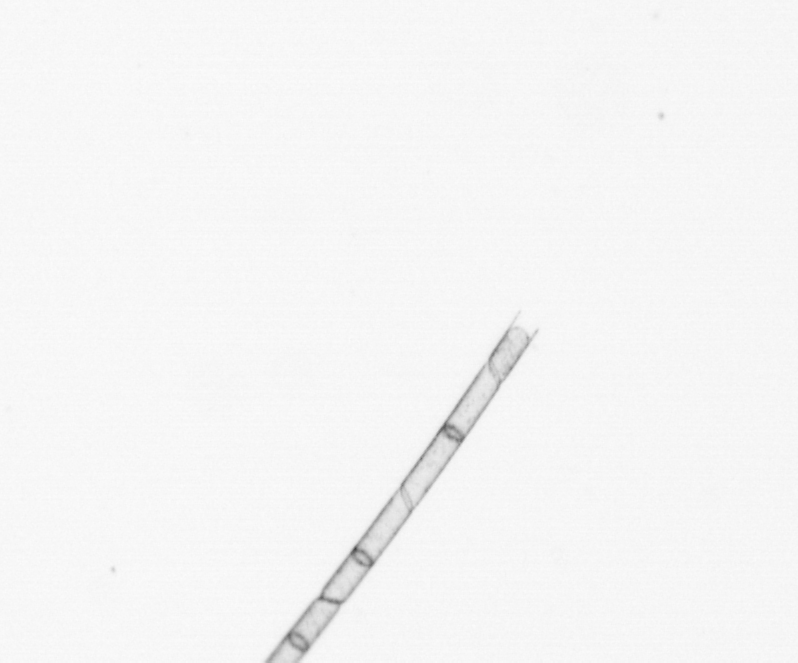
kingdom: Chromista
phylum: Ochrophyta
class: Bacillariophyceae
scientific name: Bacillariophyceae
